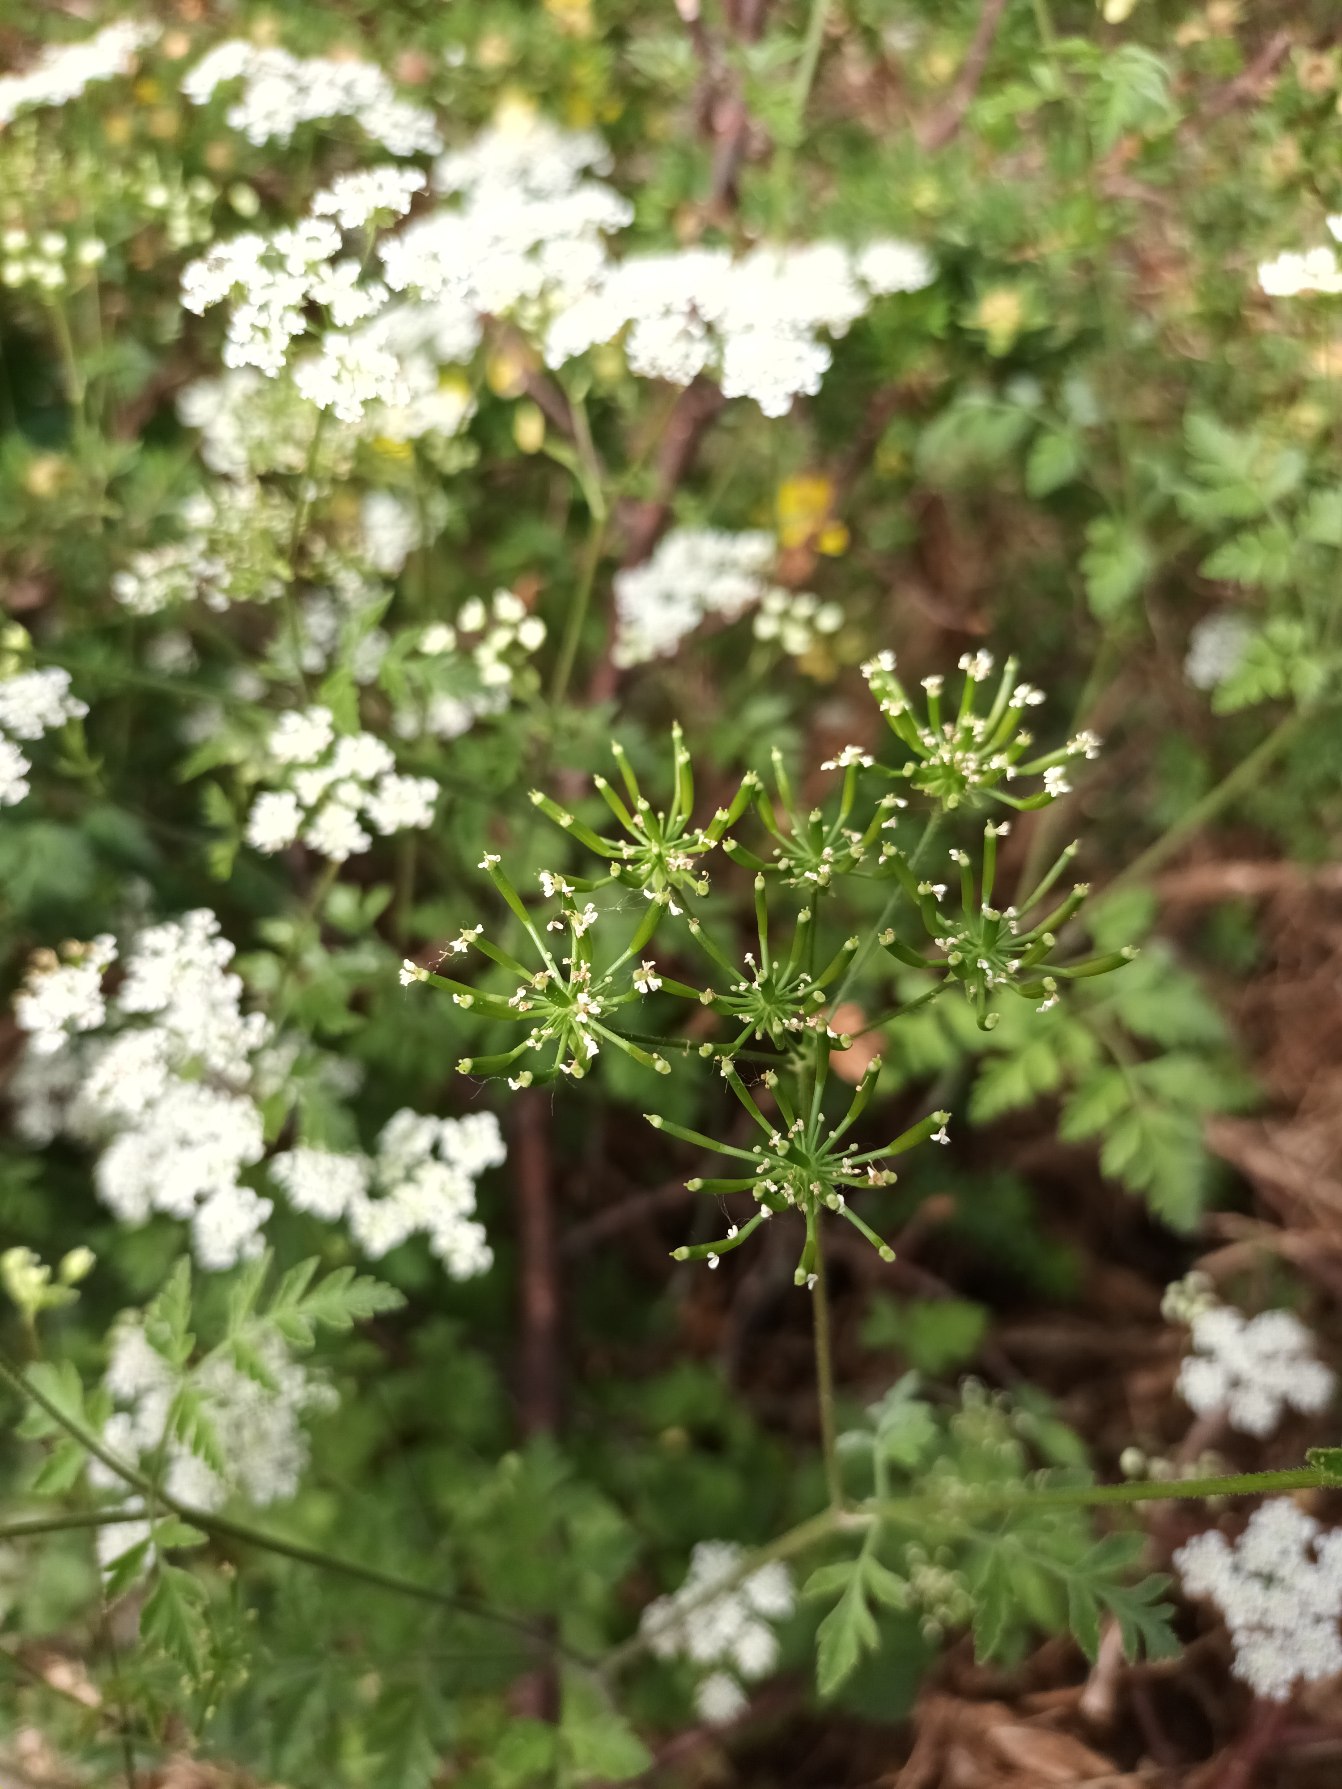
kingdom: Plantae
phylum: Tracheophyta
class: Magnoliopsida
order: Apiales
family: Apiaceae
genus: Chaerophyllum
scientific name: Chaerophyllum temulum
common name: Almindelig hulsvøb
